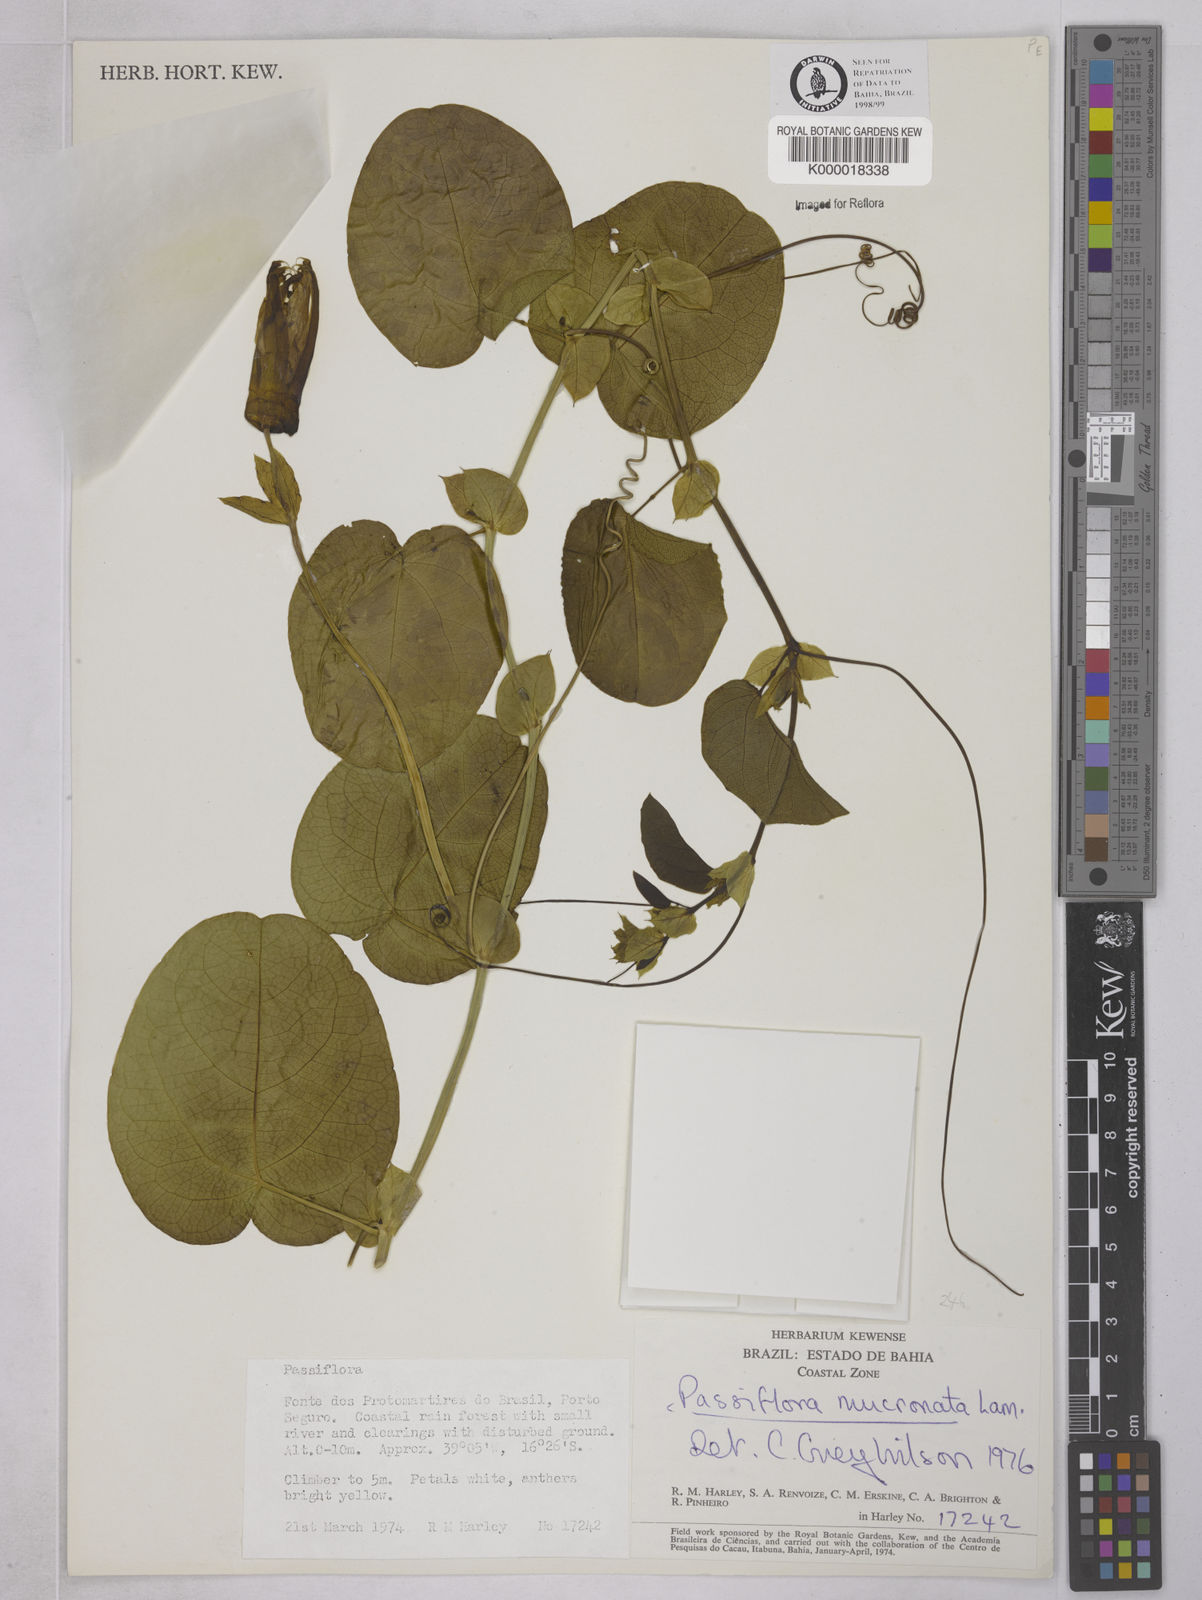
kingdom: Plantae
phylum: Tracheophyta
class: Magnoliopsida
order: Malpighiales
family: Passifloraceae
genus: Passiflora
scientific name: Passiflora mucronata
